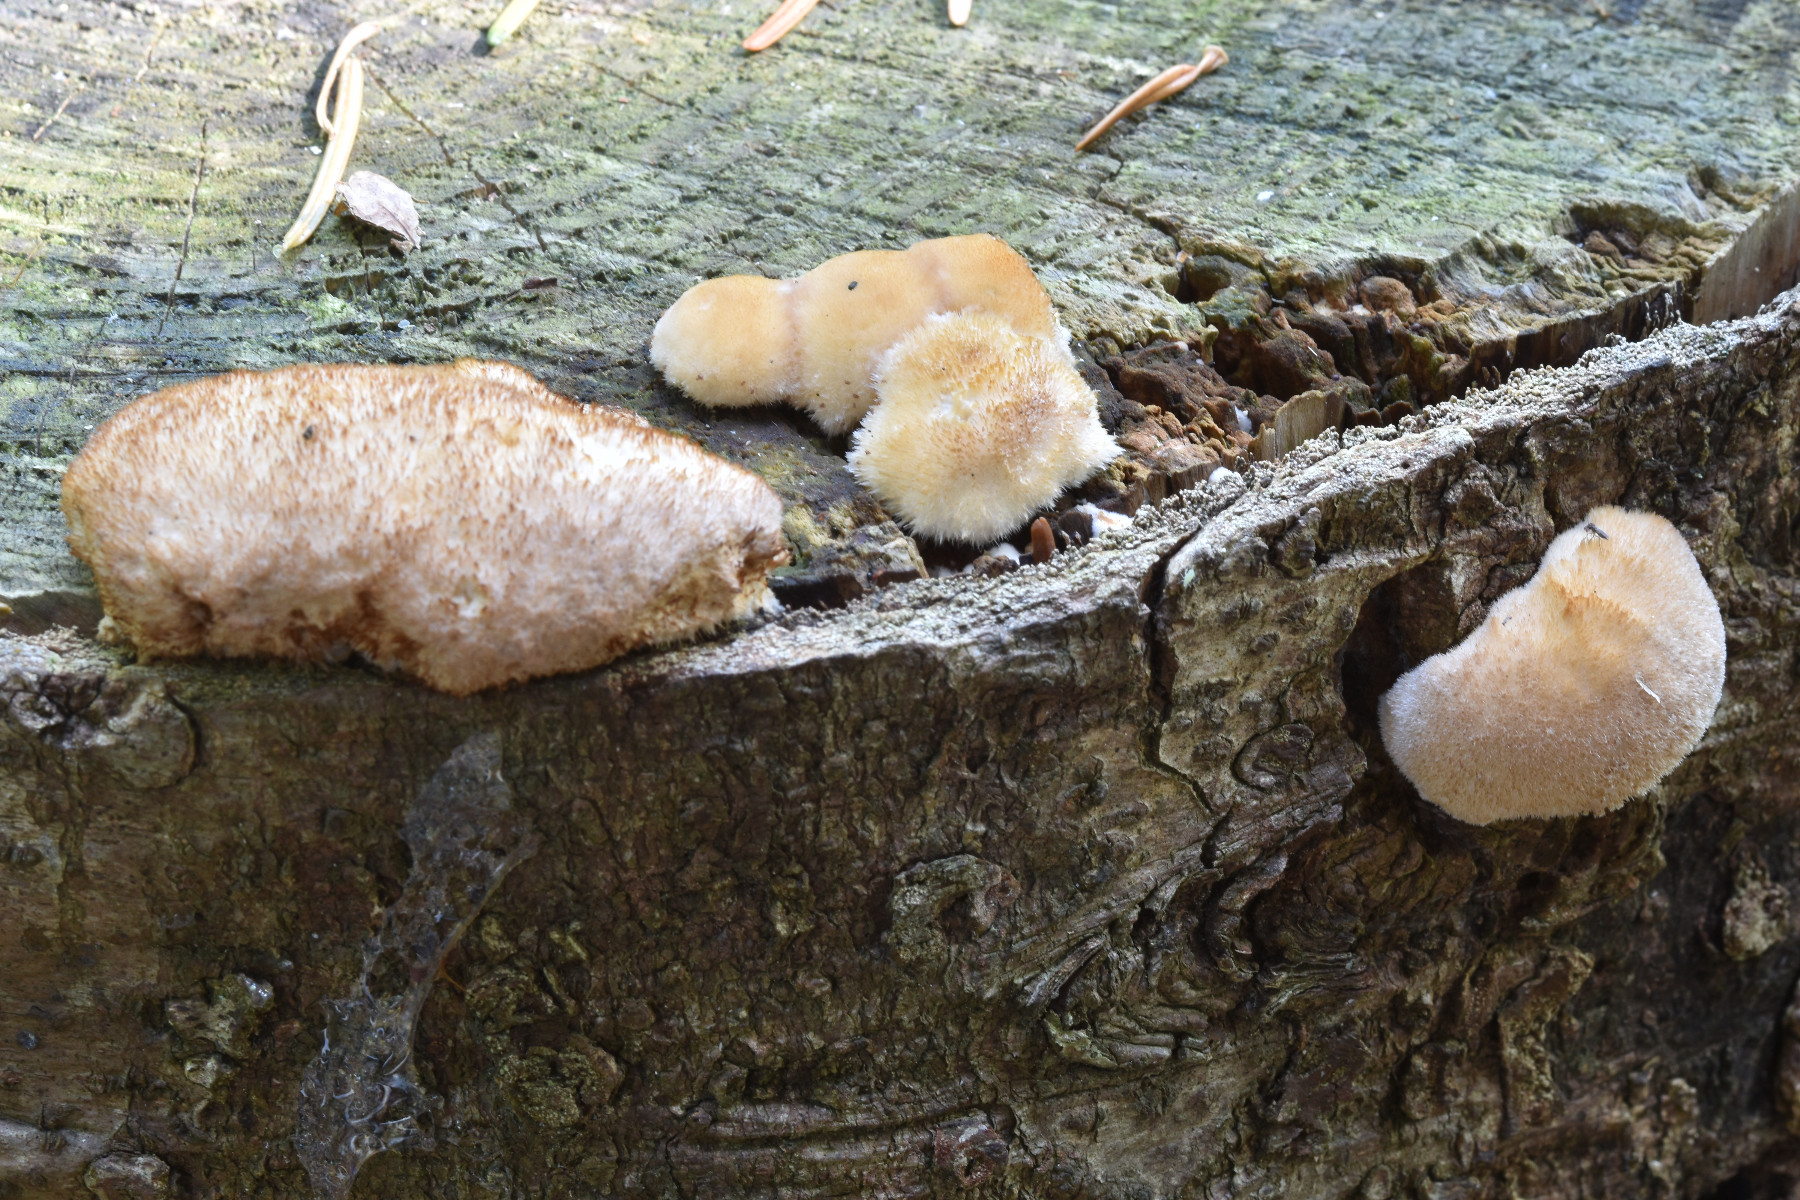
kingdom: Fungi
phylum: Basidiomycota
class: Agaricomycetes
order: Polyporales
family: Dacryobolaceae
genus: Postia
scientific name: Postia ptychogaster
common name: støvende kødporesvamp
